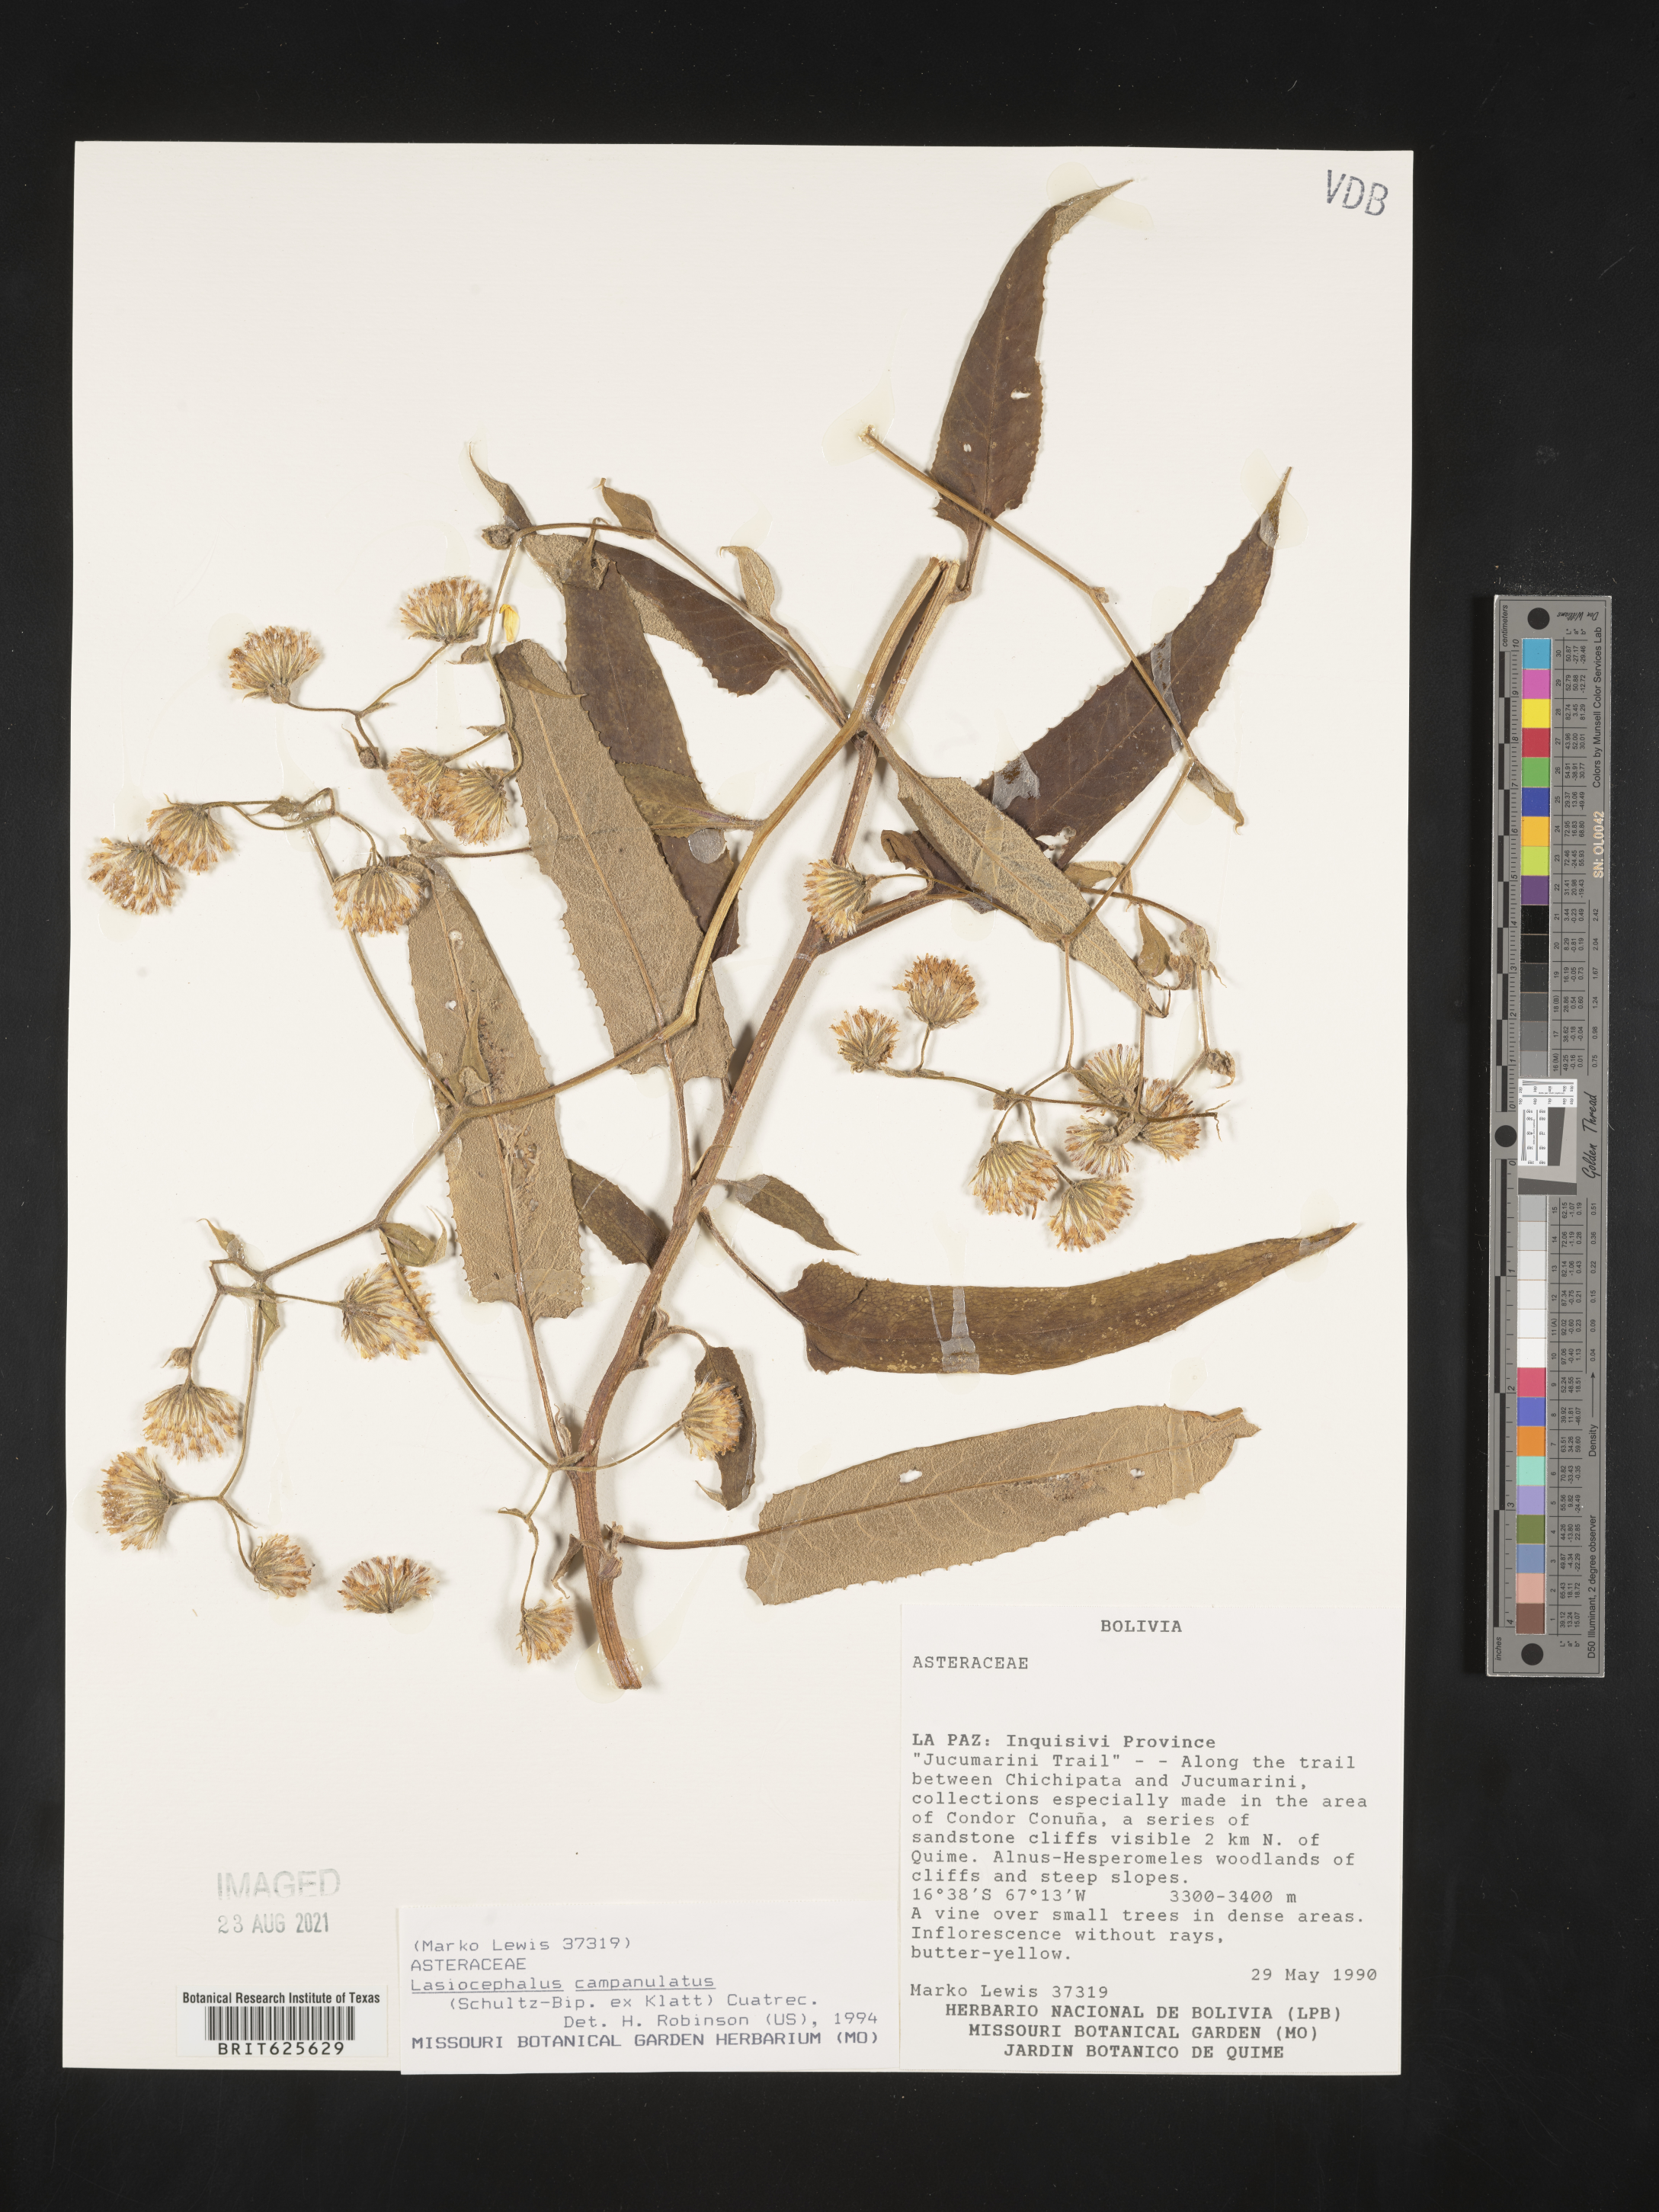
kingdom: Plantae
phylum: Tracheophyta
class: Magnoliopsida
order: Asterales
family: Asteraceae
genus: Aetheolaena
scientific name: Aetheolaena betonicifolia
